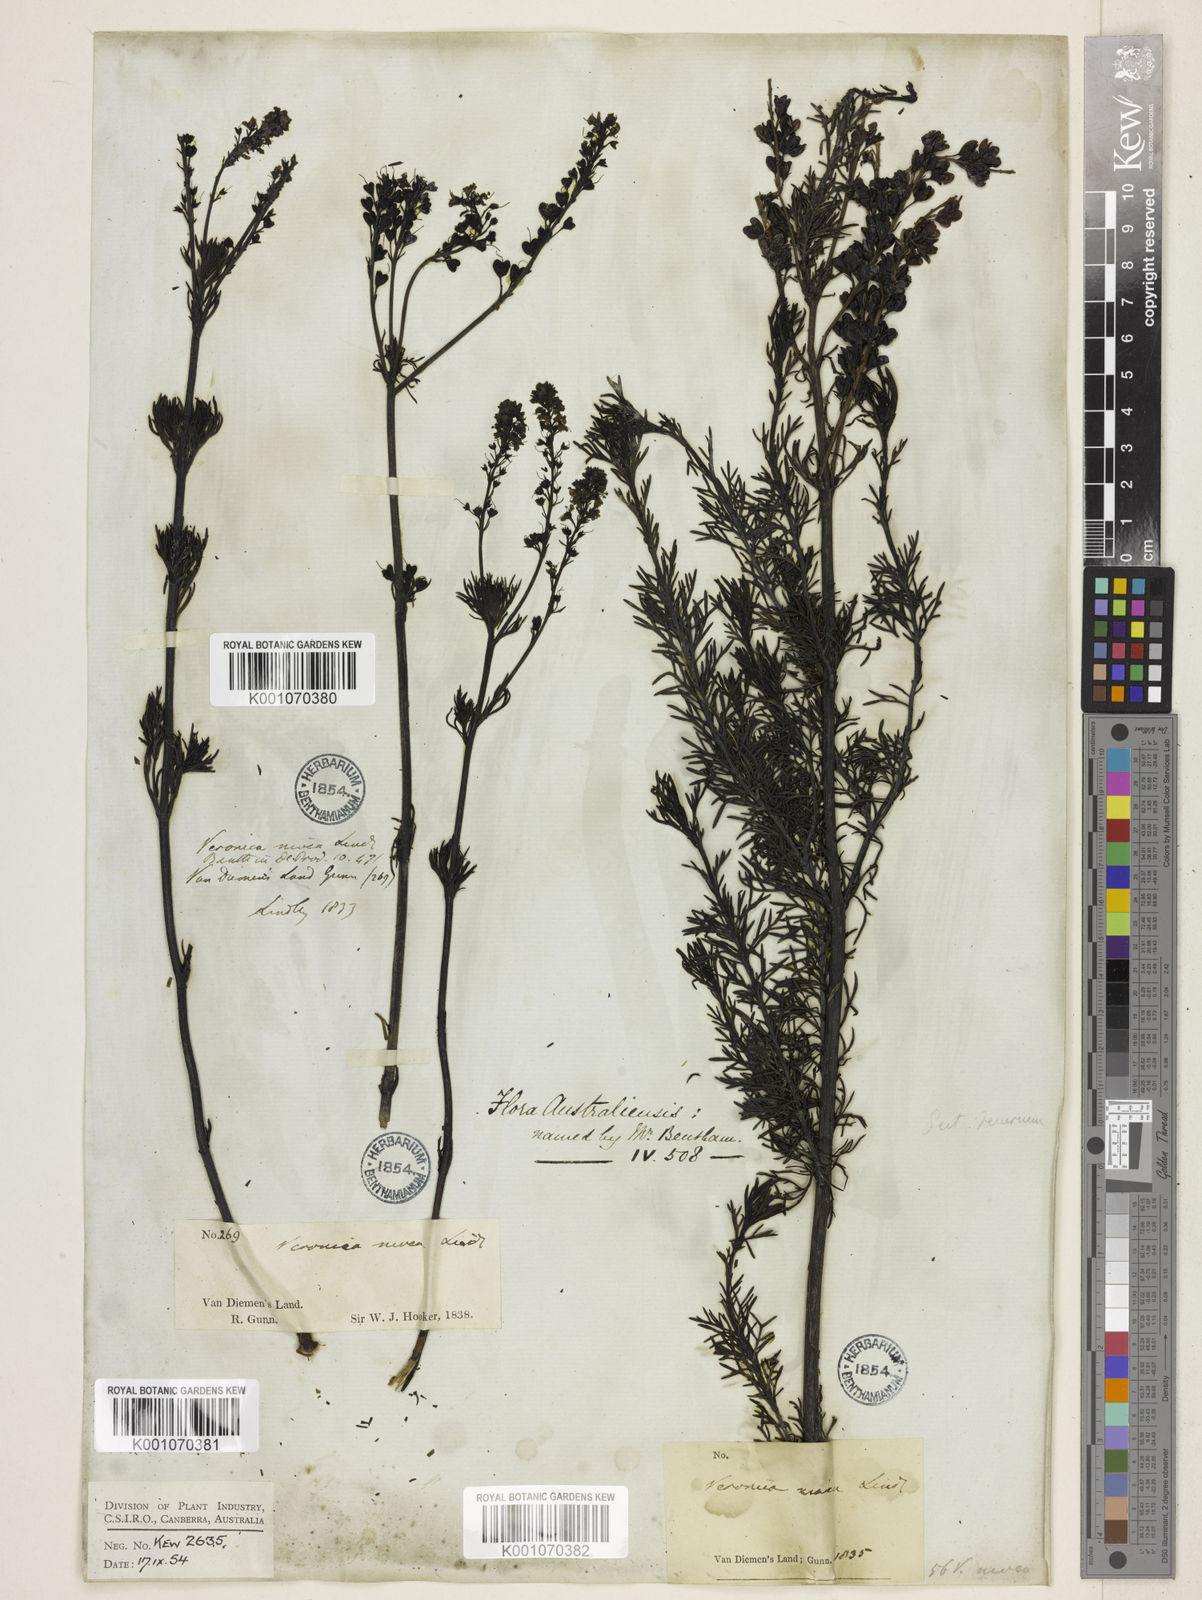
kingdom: Plantae
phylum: Tracheophyta
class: Magnoliopsida
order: Lamiales
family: Plantaginaceae
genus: Veronica
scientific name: Veronica nivea
